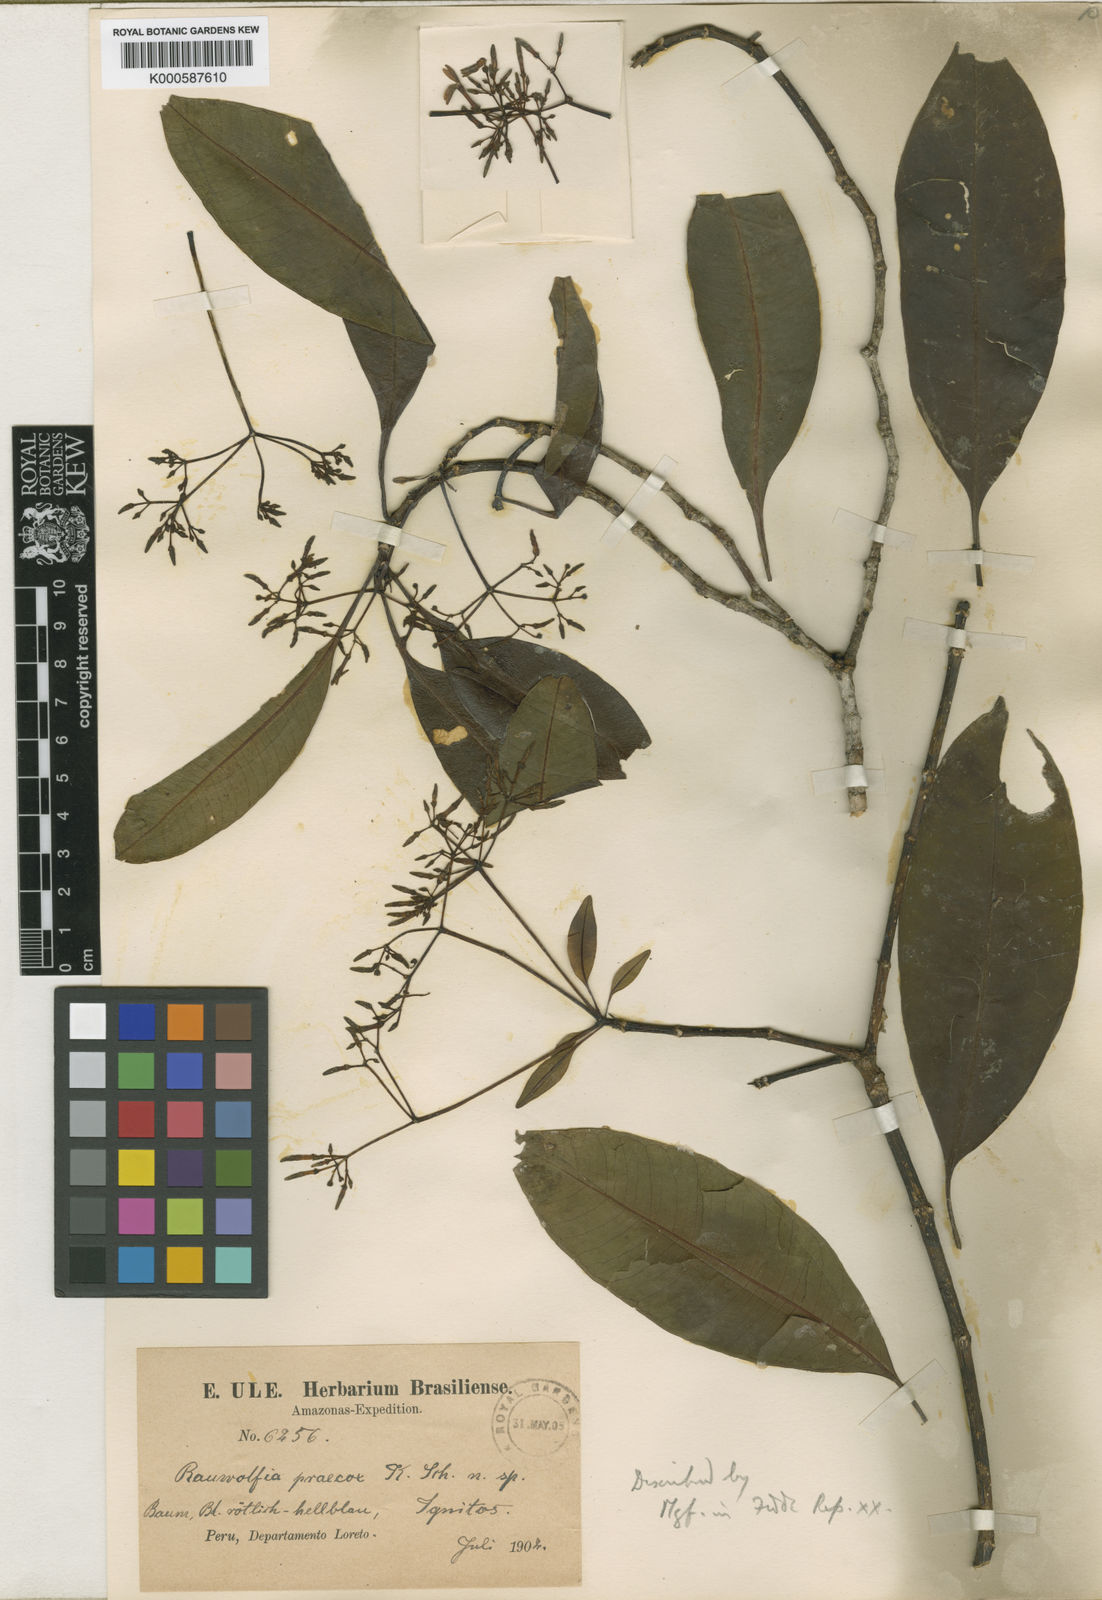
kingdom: Plantae
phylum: Tracheophyta
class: Magnoliopsida
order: Gentianales
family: Apocynaceae
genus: Rauvolfia
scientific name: Rauvolfia praecox
